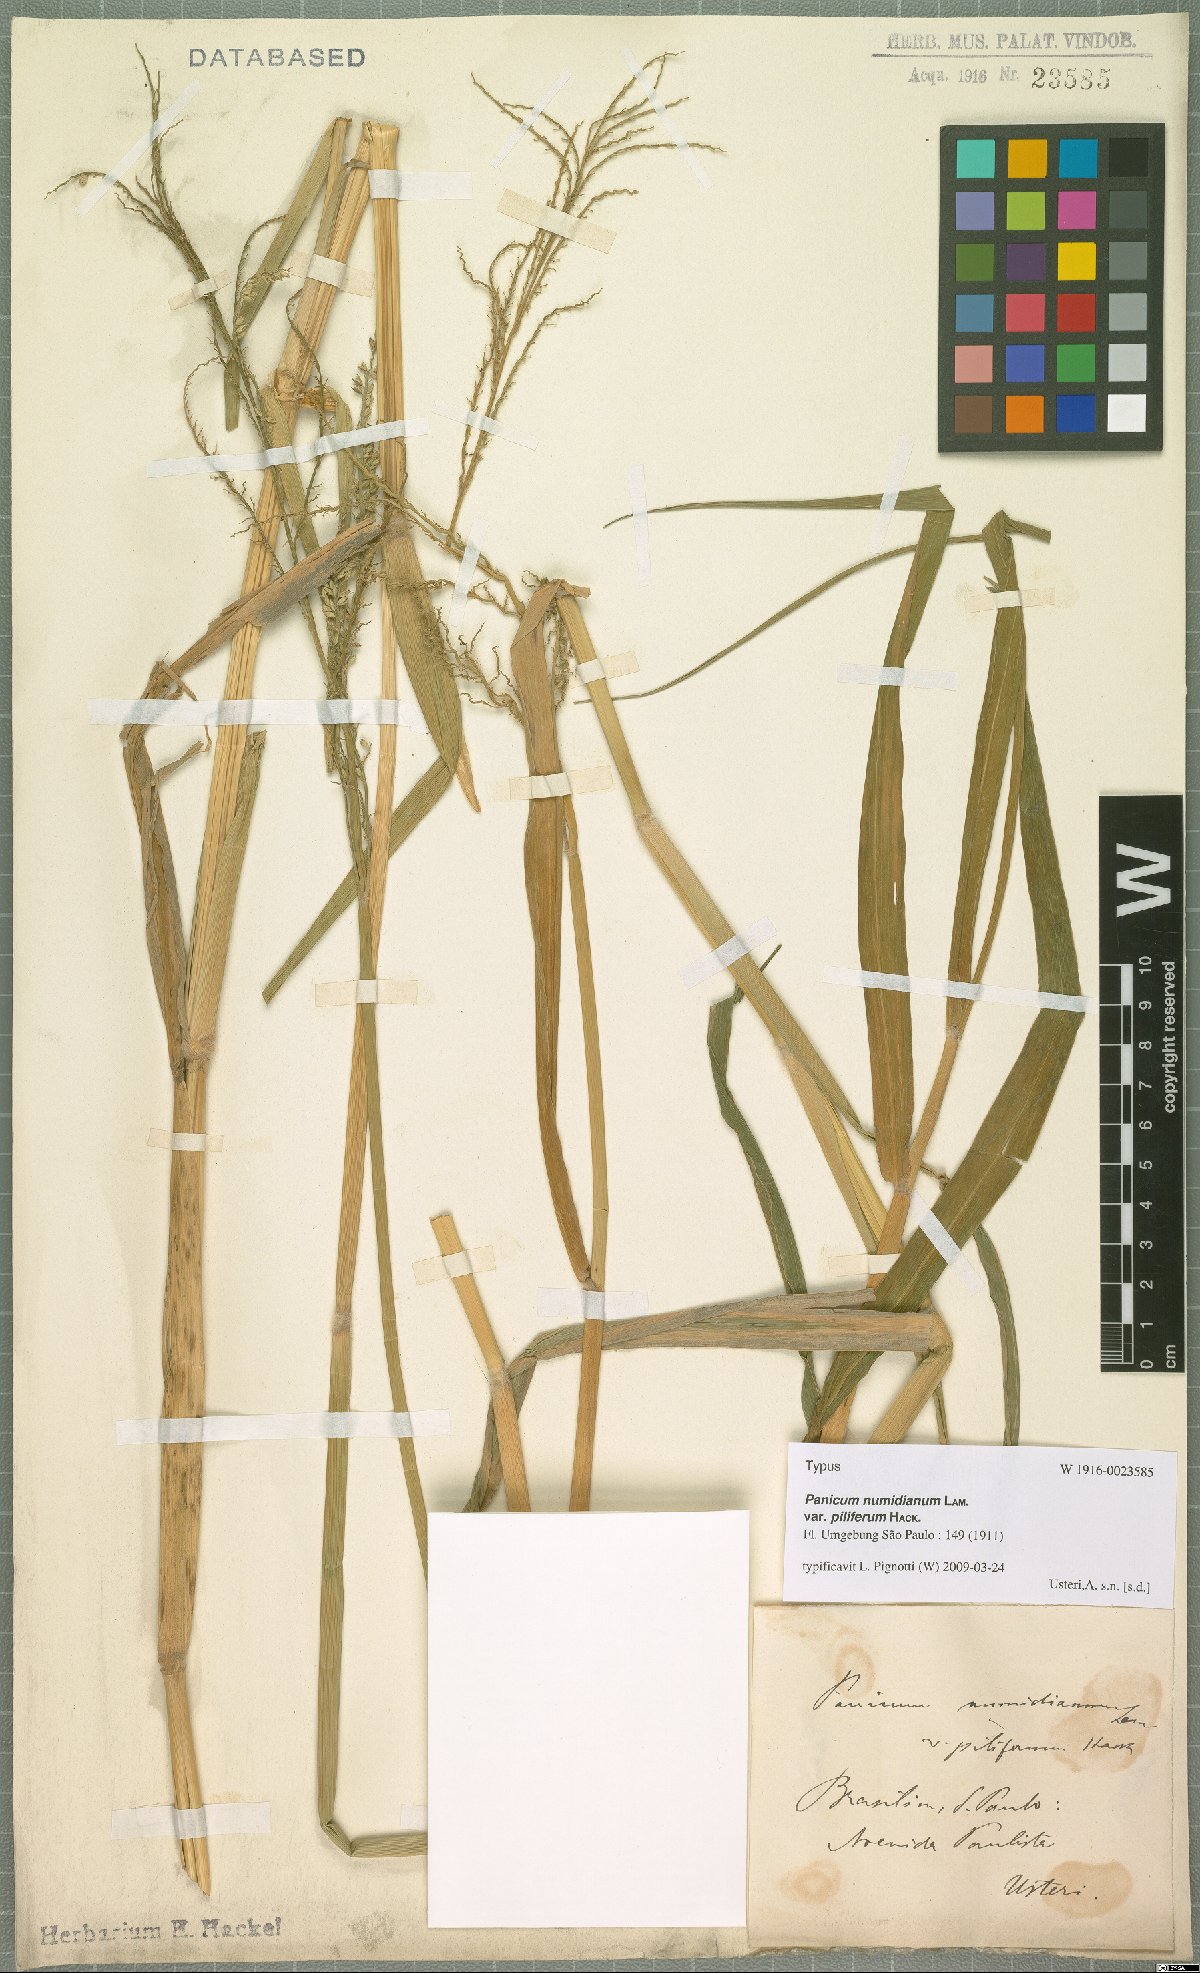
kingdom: Plantae
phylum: Tracheophyta
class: Liliopsida
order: Poales
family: Poaceae
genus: Panicum
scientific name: Panicum numidianum
